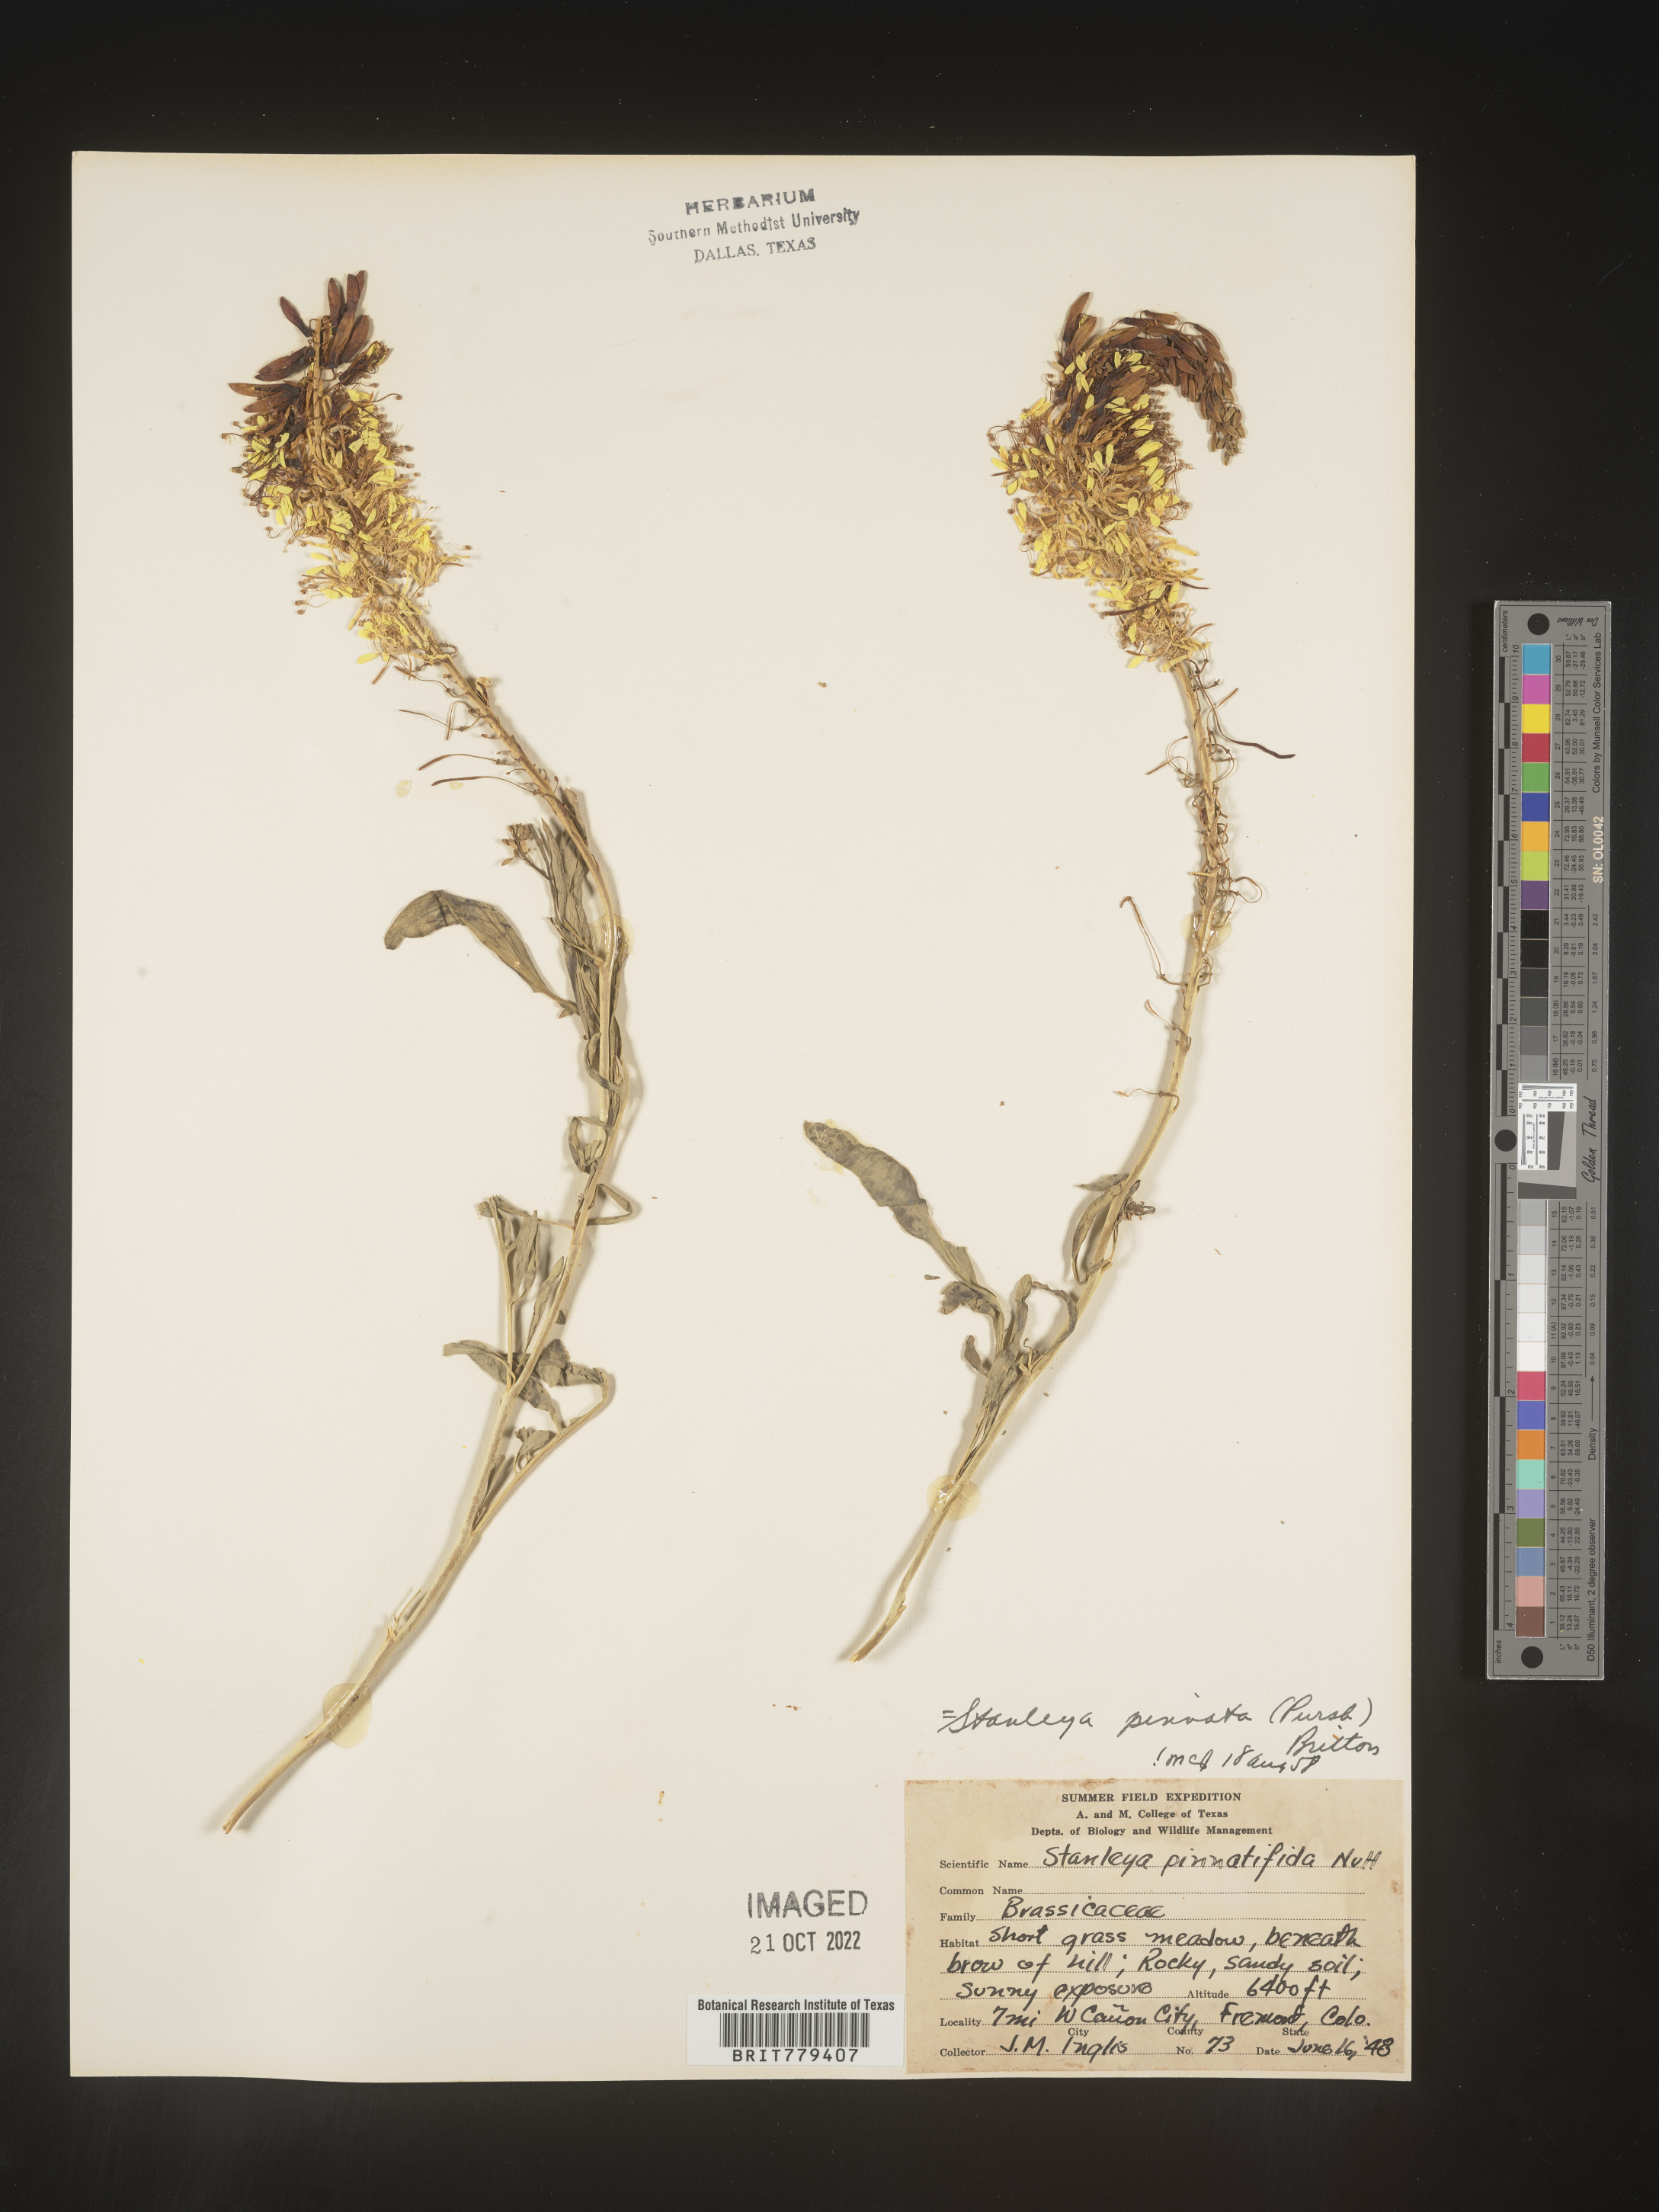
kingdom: Plantae
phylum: Tracheophyta
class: Magnoliopsida
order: Brassicales
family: Brassicaceae
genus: Stanleya
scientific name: Stanleya pinnata
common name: Prince's-plume
